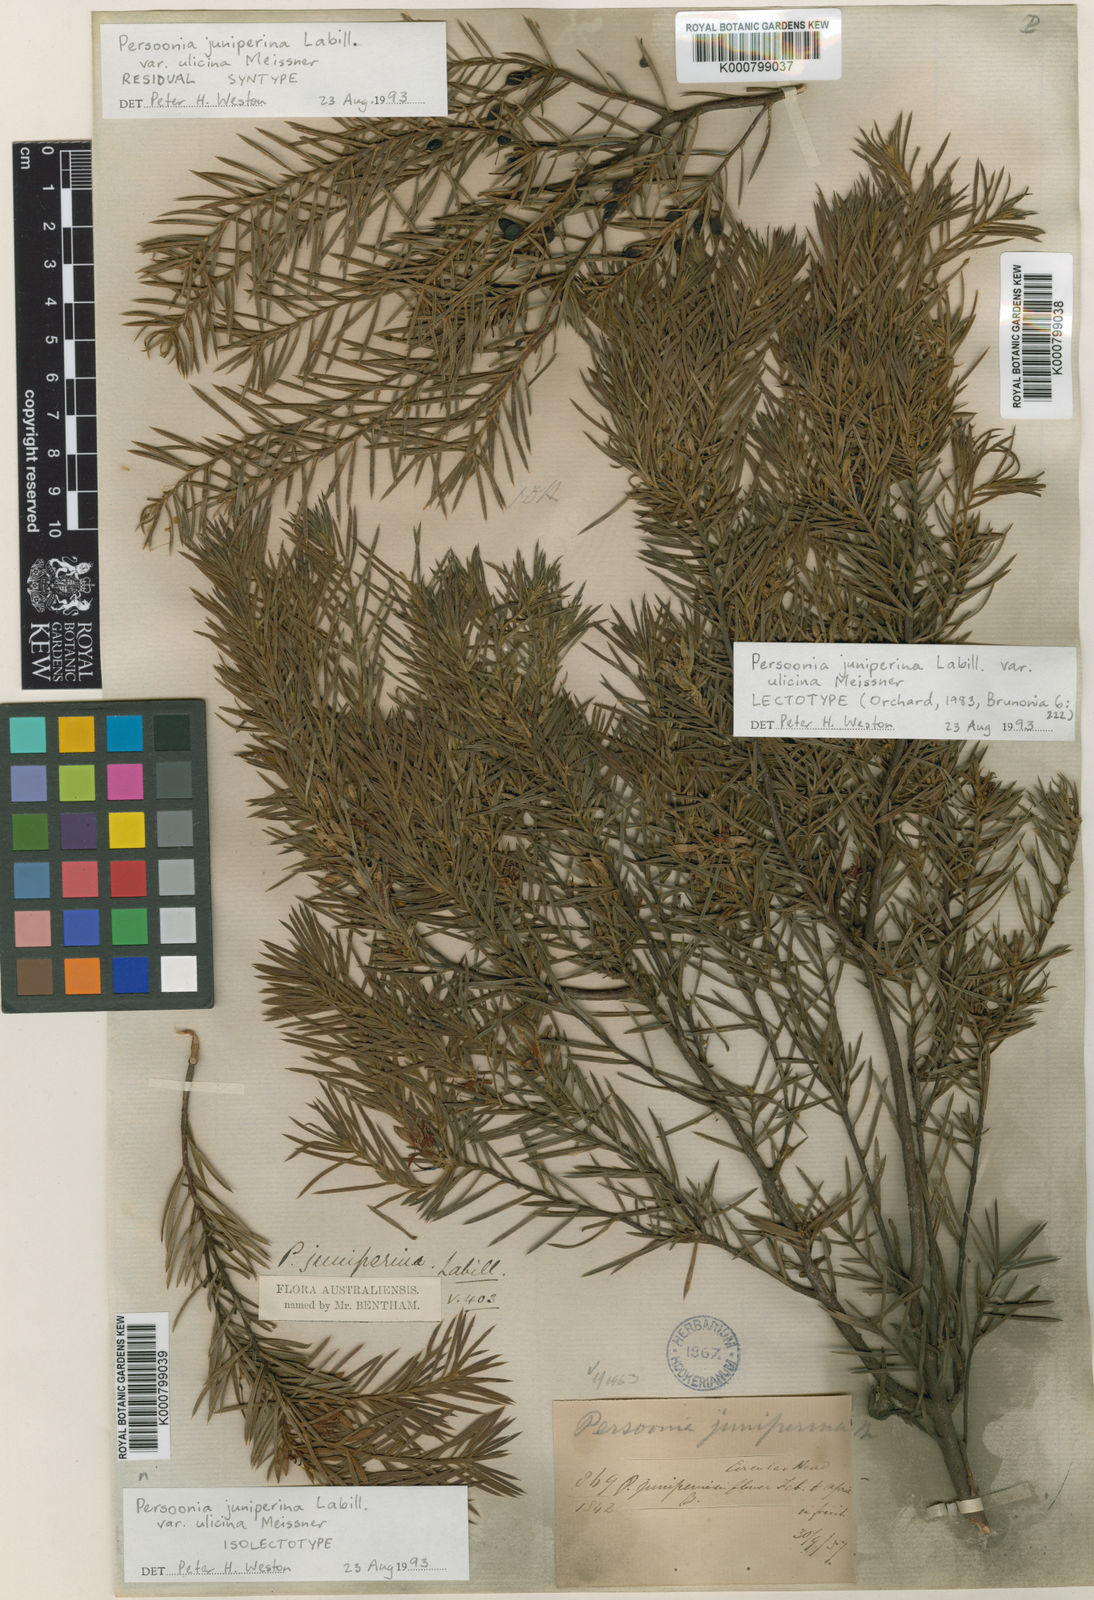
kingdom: Plantae
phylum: Tracheophyta
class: Magnoliopsida
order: Proteales
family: Proteaceae
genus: Persoonia
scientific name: Persoonia juniperina
